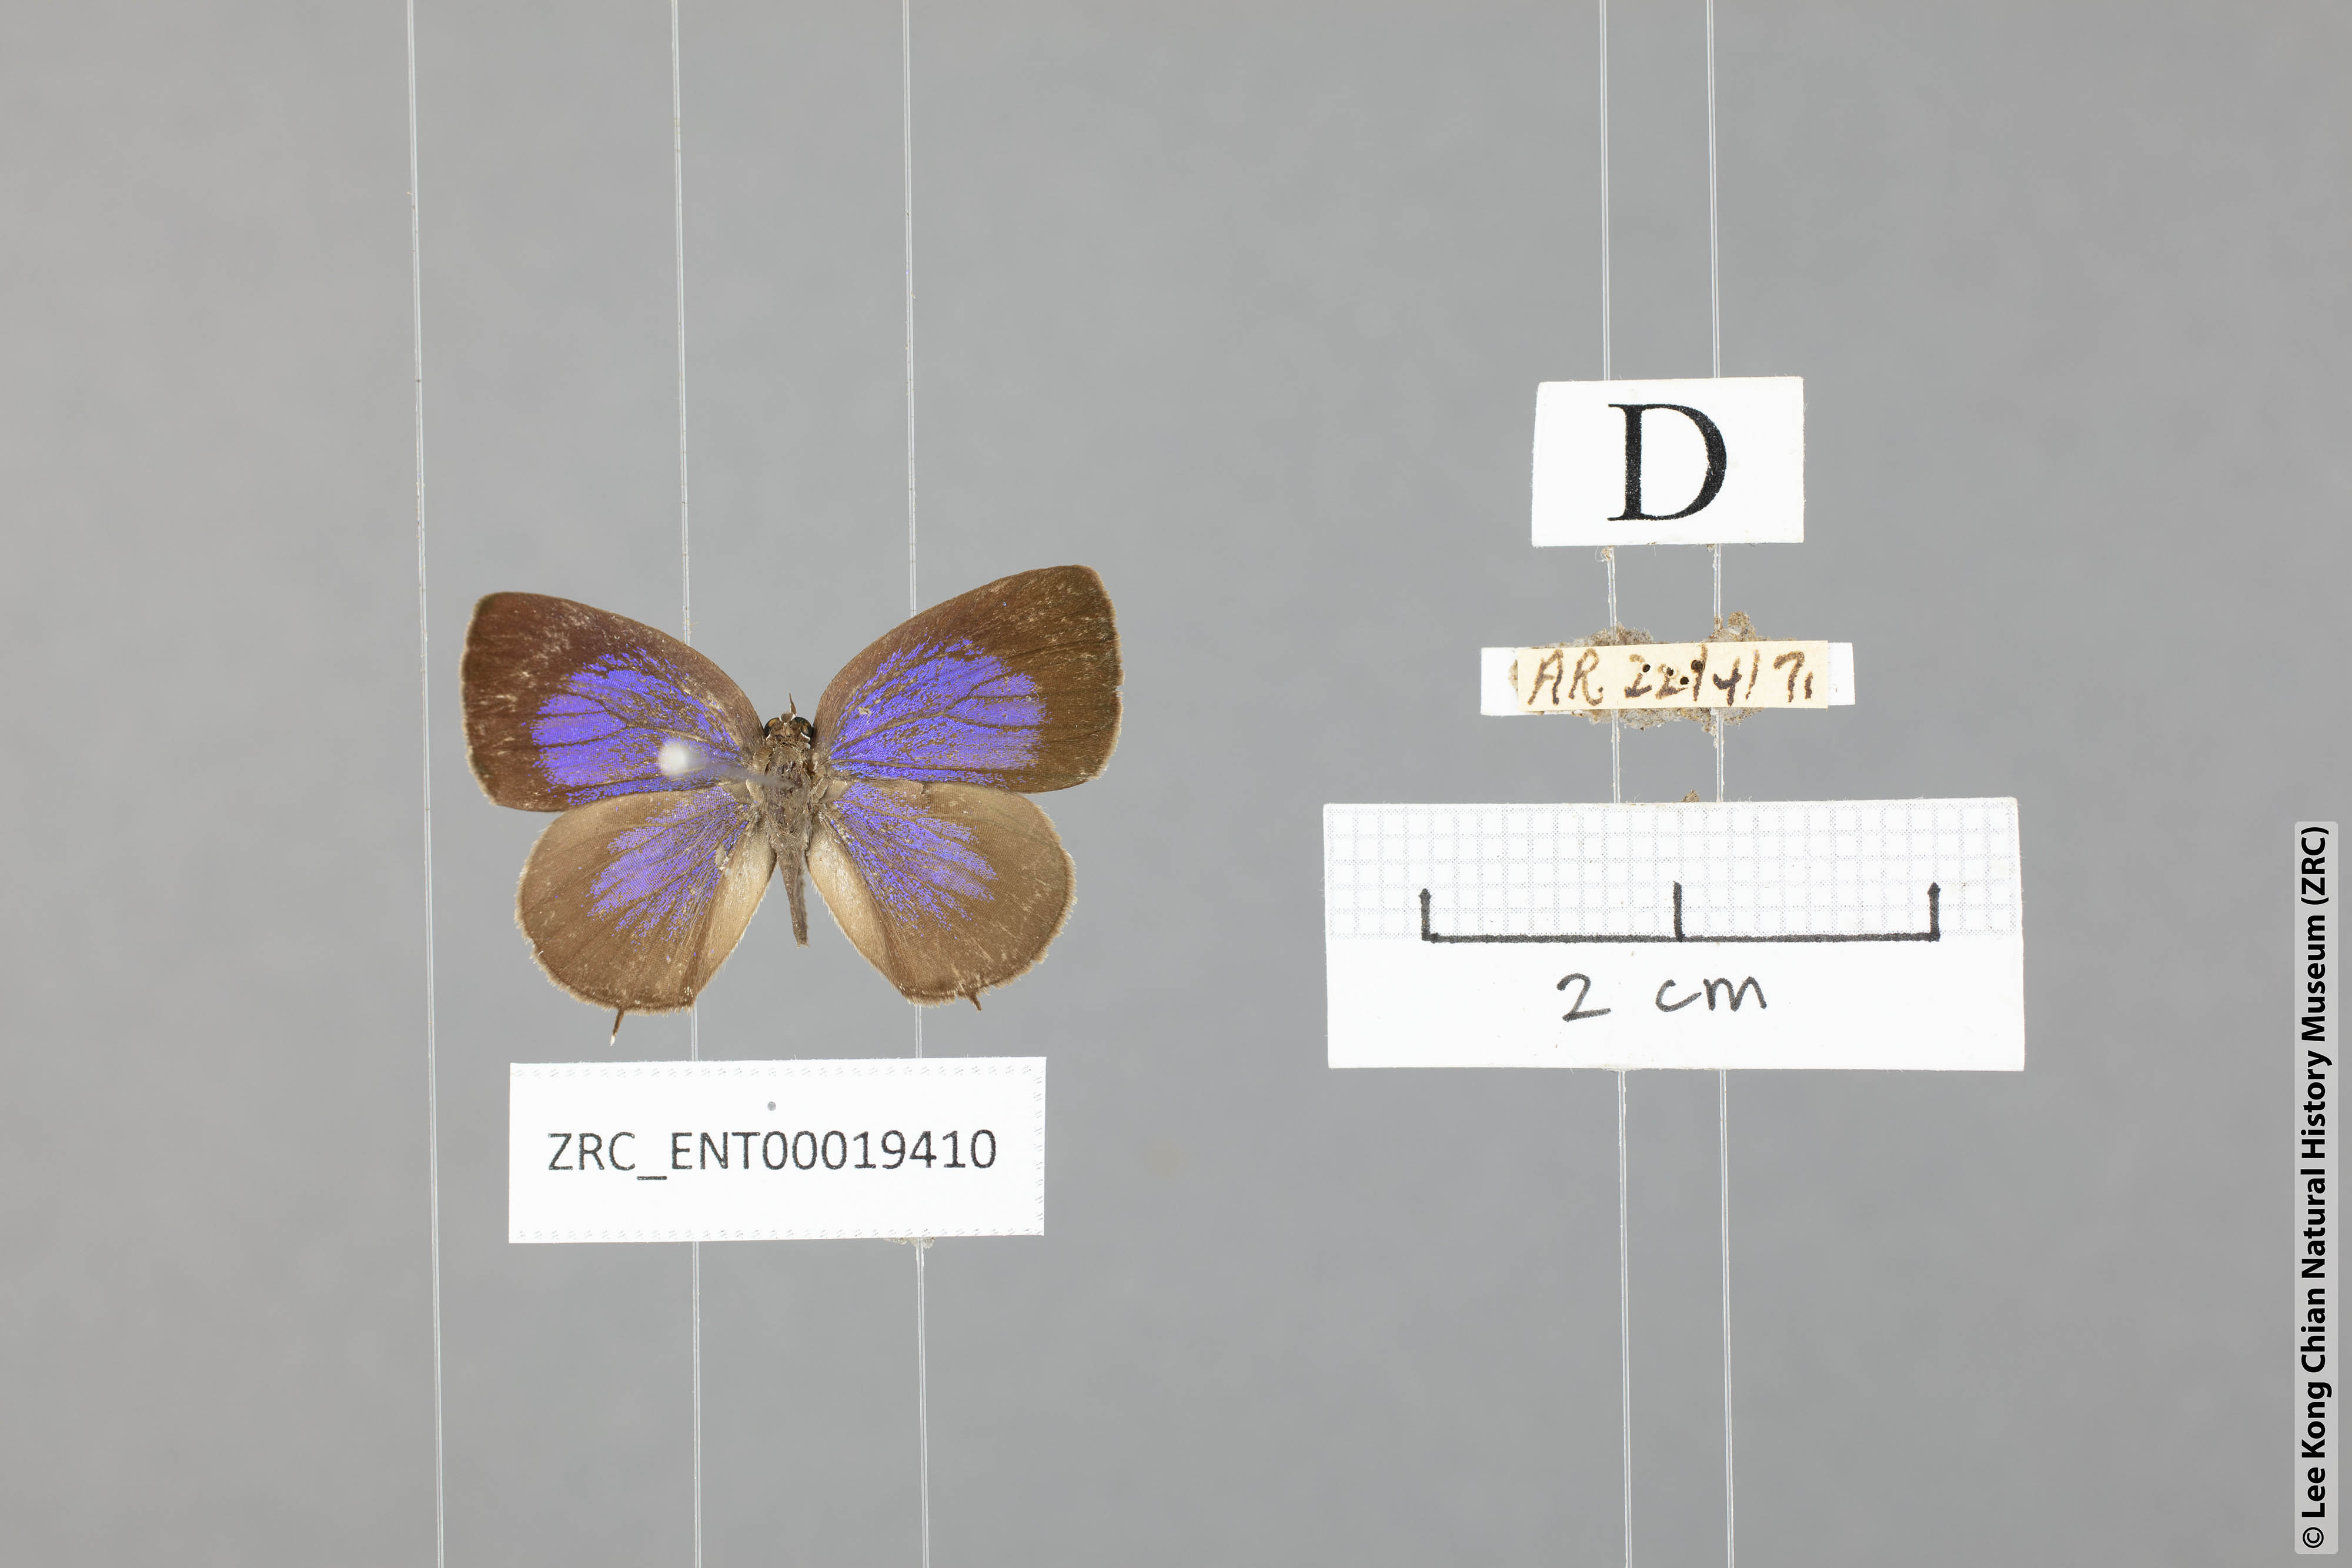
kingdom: Animalia
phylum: Arthropoda
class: Insecta
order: Lepidoptera
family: Lycaenidae
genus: Arhopala
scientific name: Arhopala elizabethae
